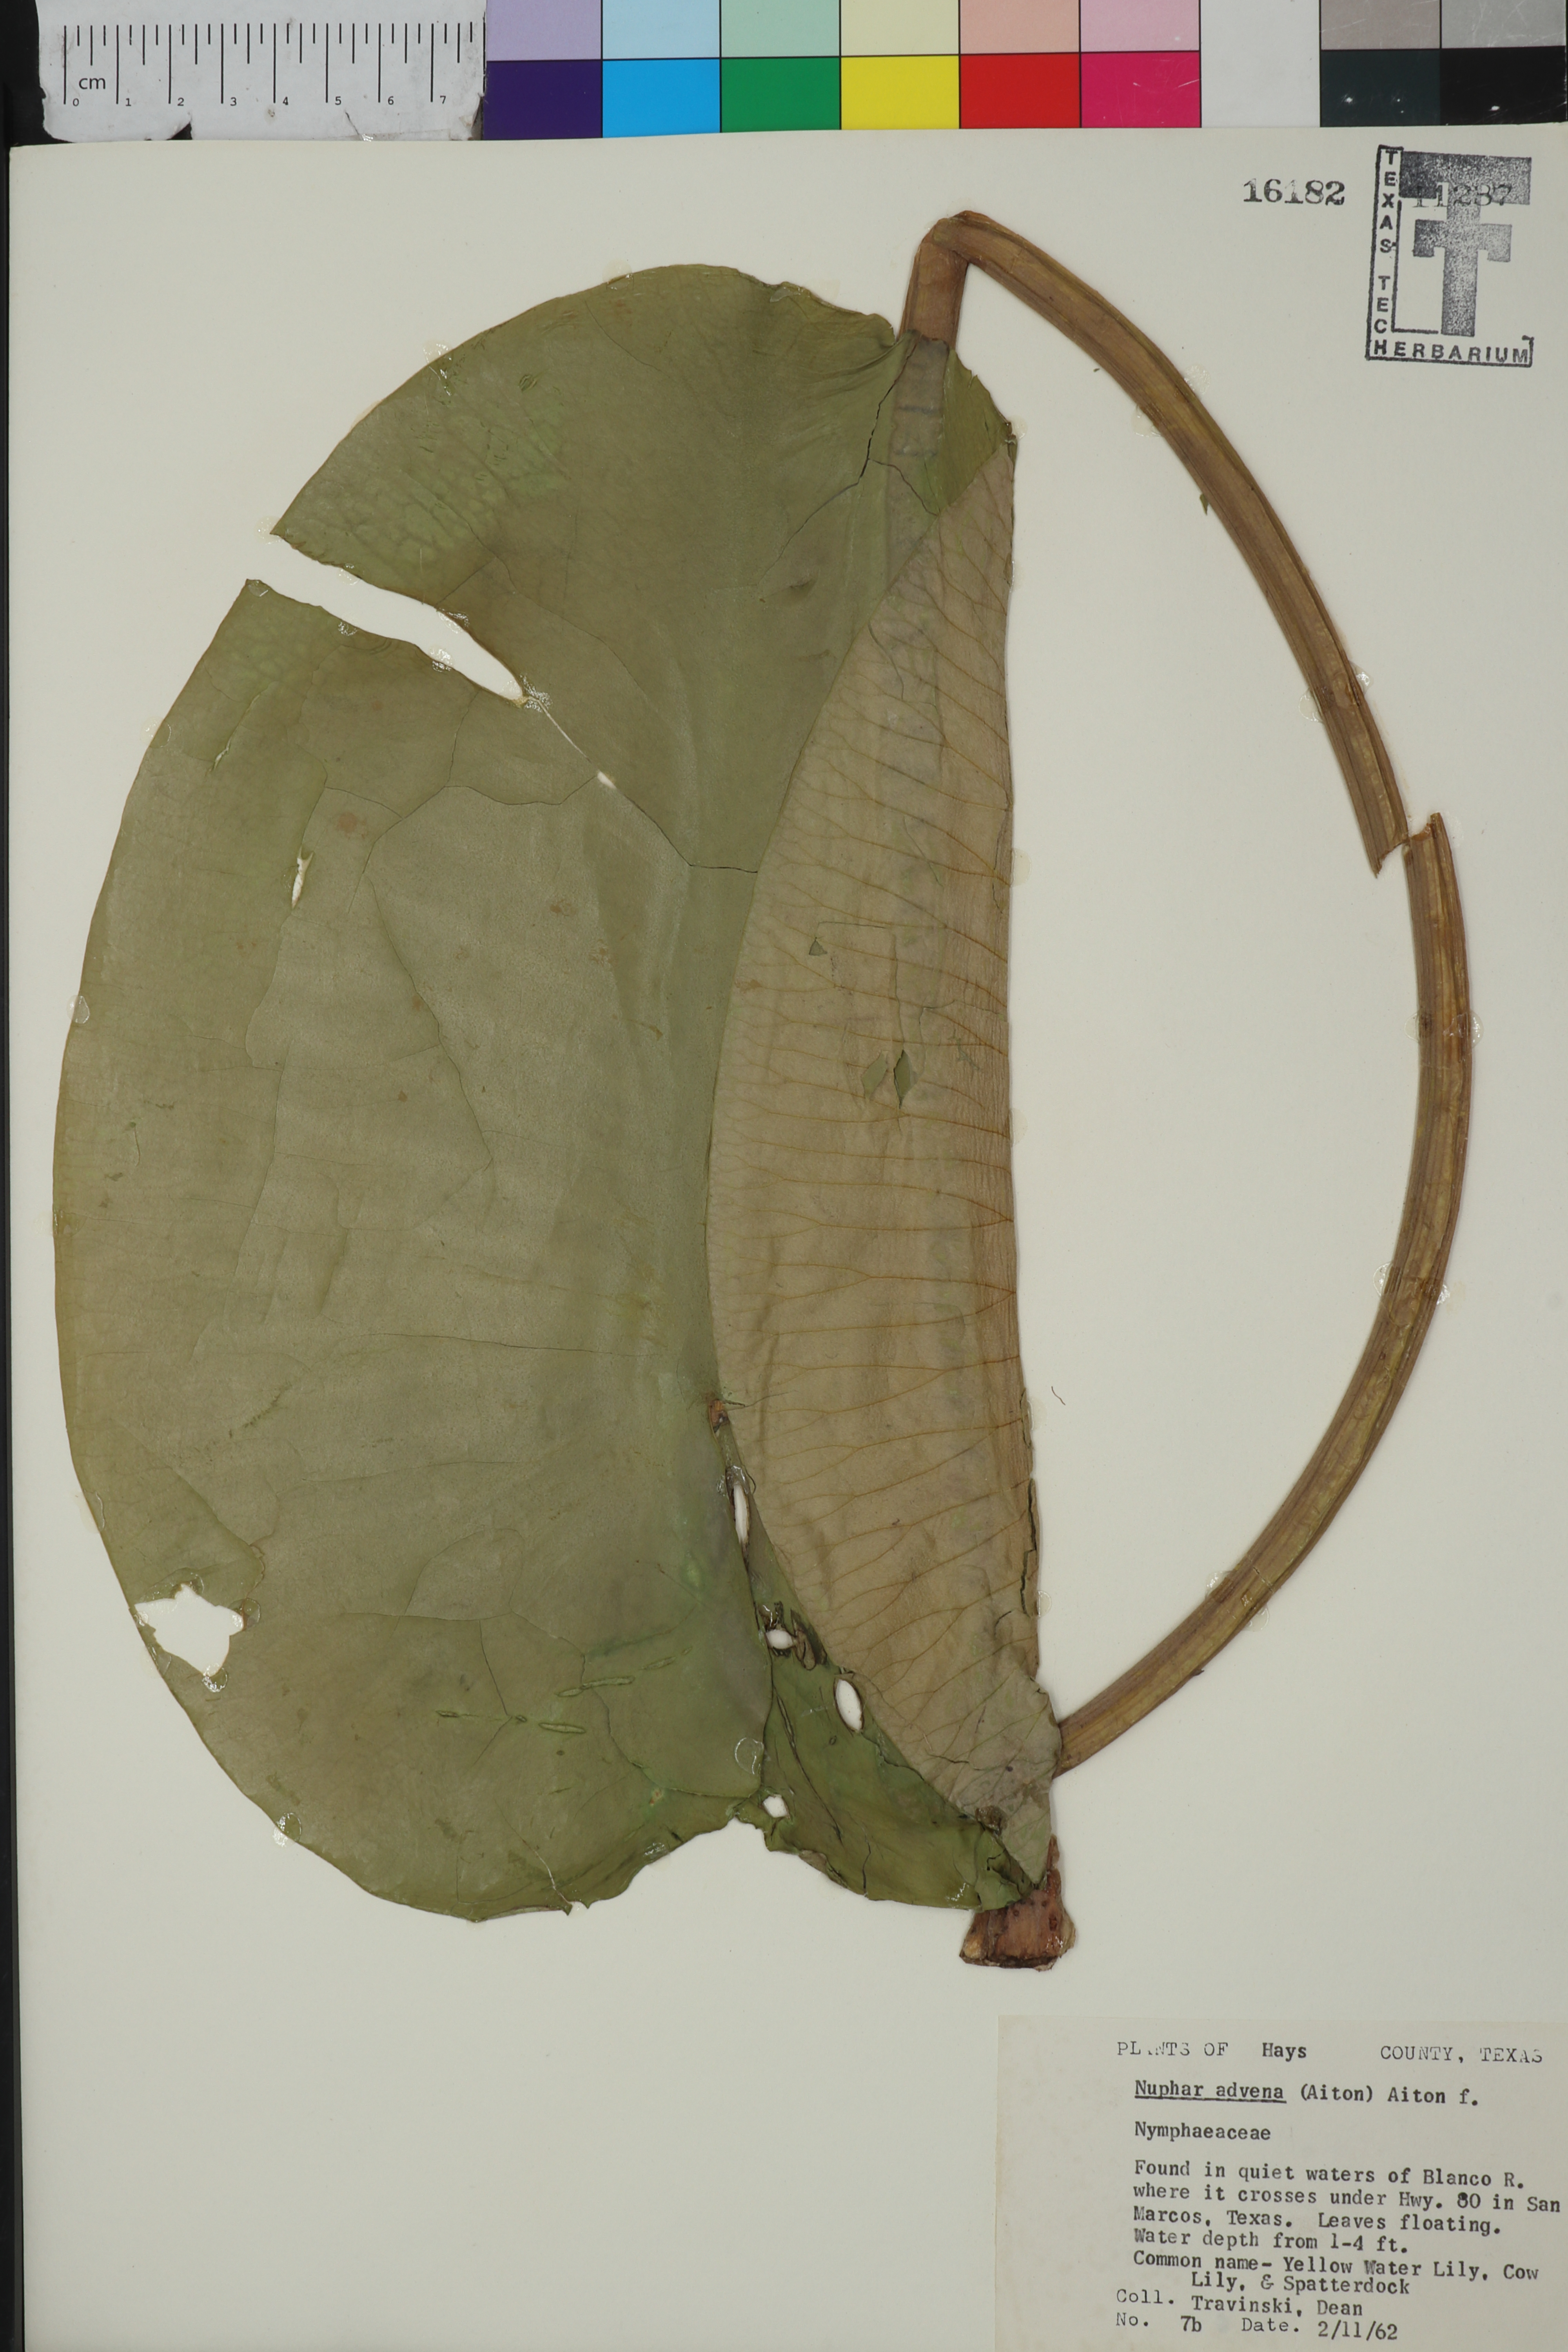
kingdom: Plantae
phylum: Tracheophyta
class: Magnoliopsida
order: Nymphaeales
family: Nymphaeaceae
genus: Nuphar
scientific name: Nuphar advena
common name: Spatter-dock
